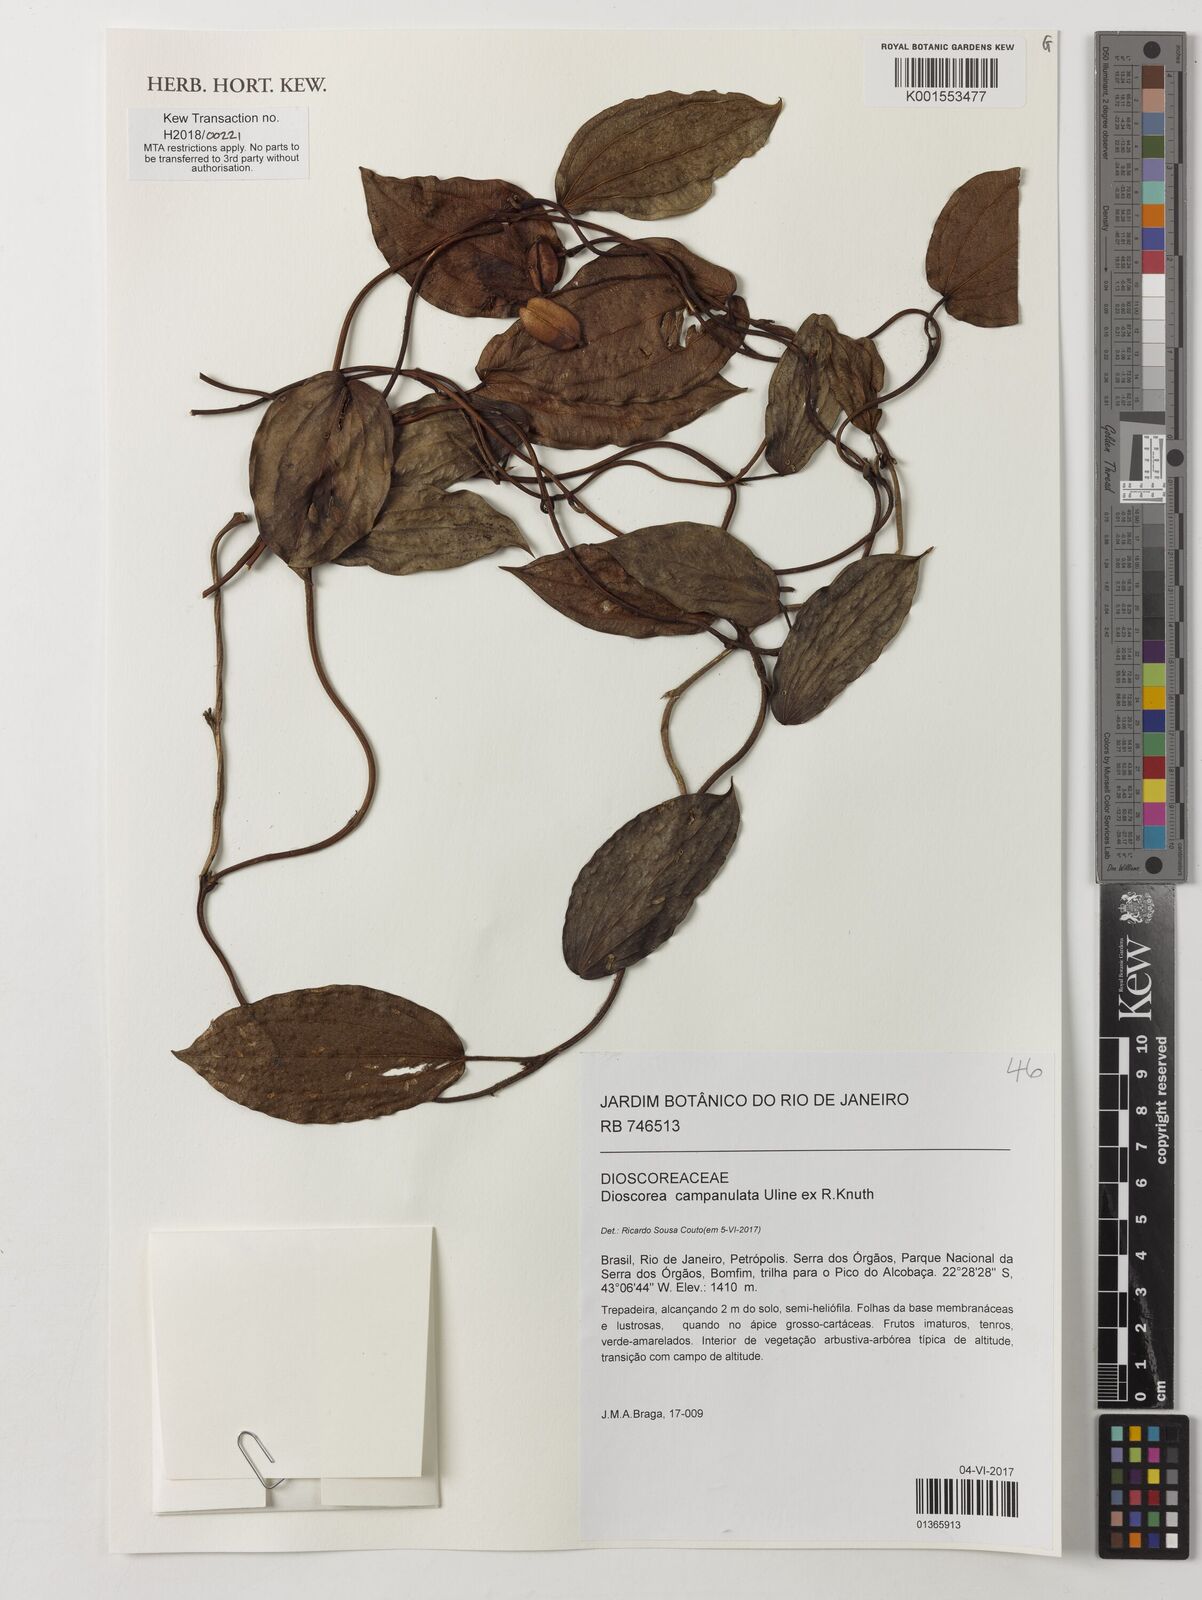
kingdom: Plantae
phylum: Tracheophyta
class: Liliopsida
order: Dioscoreales
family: Dioscoreaceae
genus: Dioscorea
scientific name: Dioscorea campanulata
